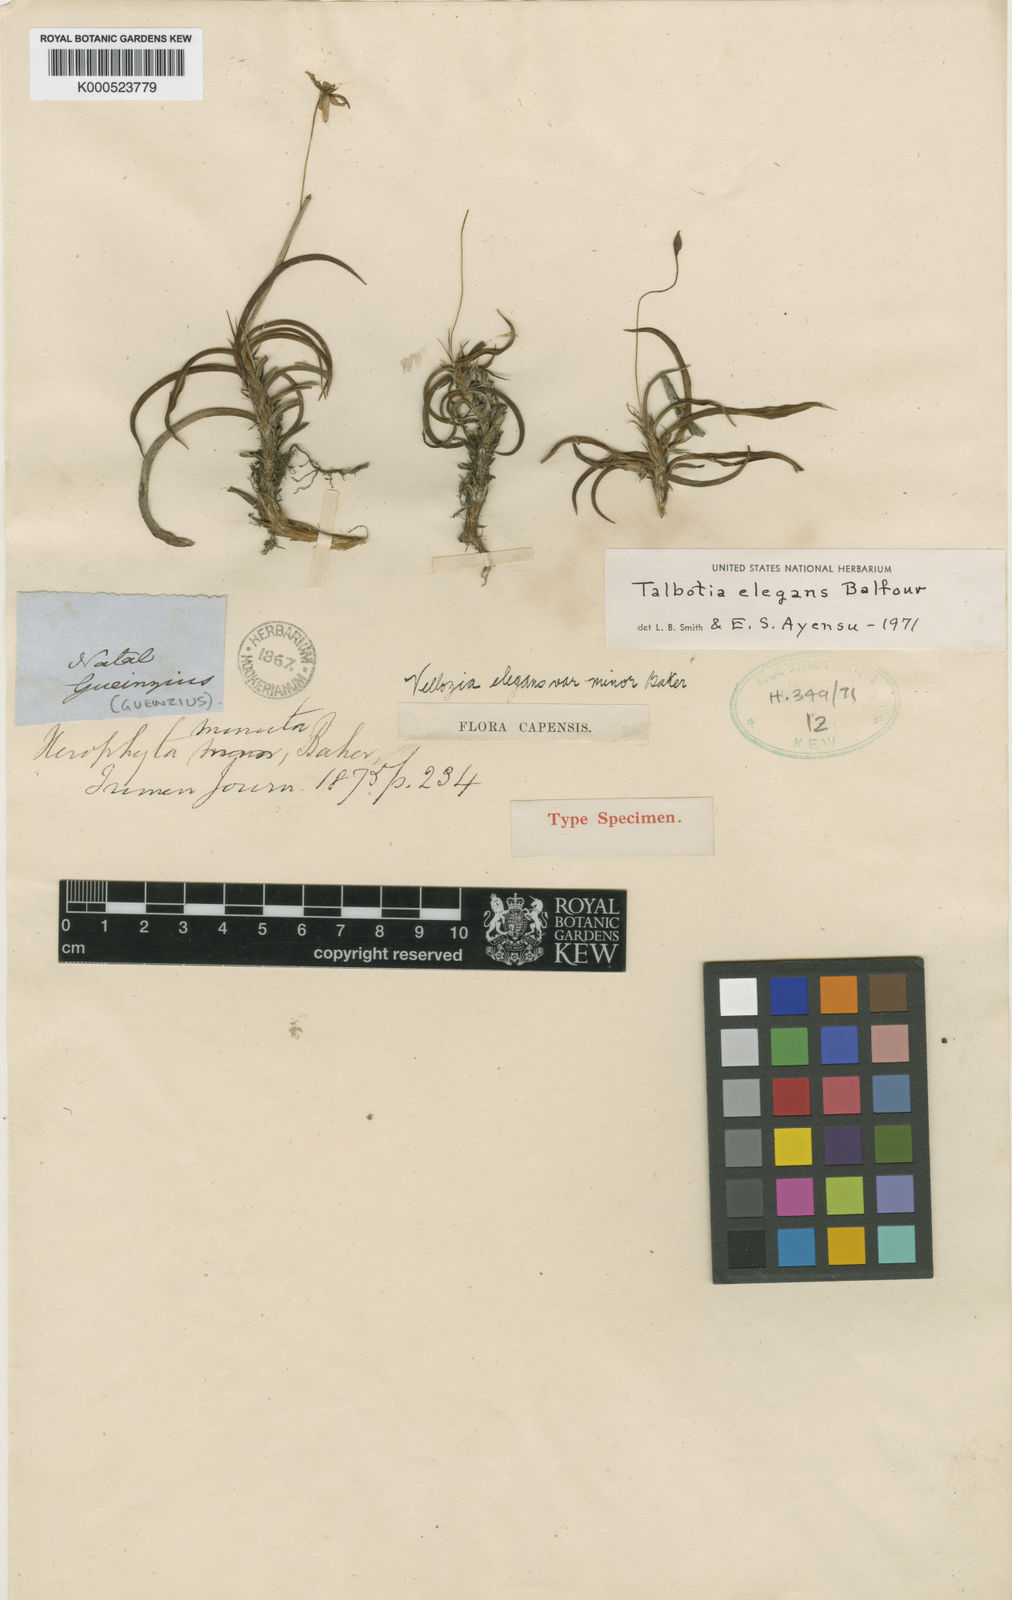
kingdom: Plantae
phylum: Tracheophyta
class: Liliopsida
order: Pandanales
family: Velloziaceae
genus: Xerophyta
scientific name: Xerophyta elegans
